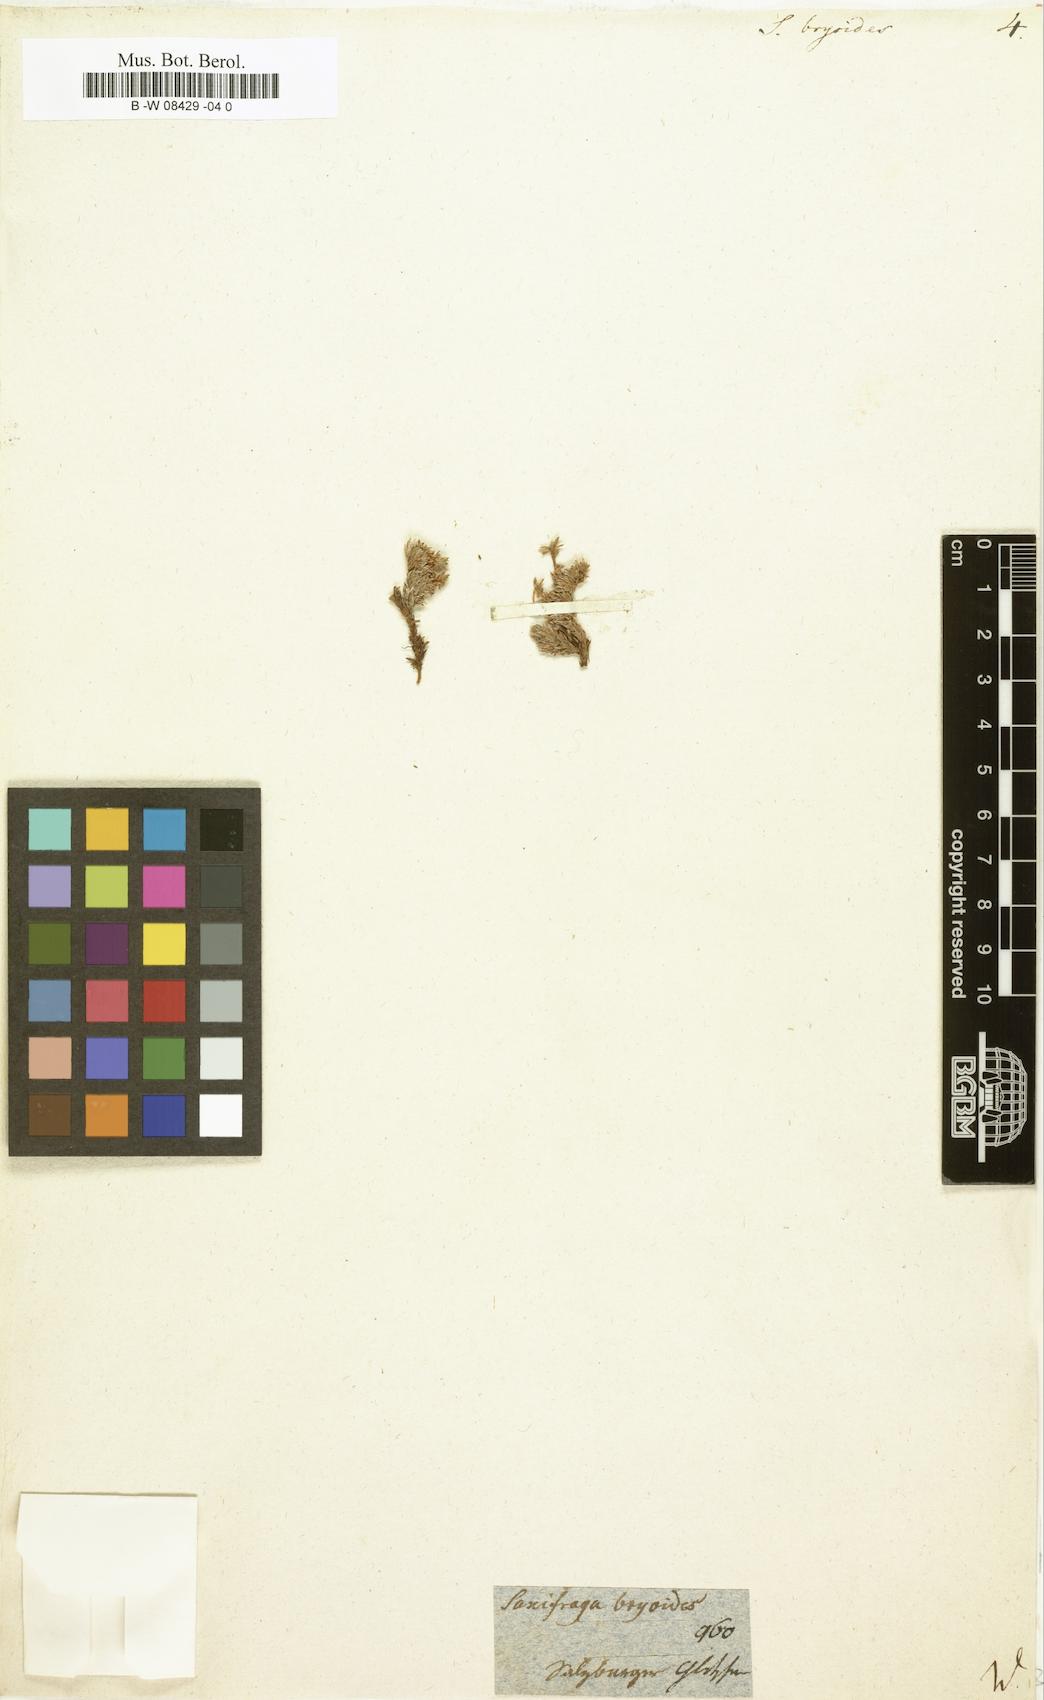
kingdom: Plantae
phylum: Tracheophyta
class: Magnoliopsida
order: Saxifragales
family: Saxifragaceae
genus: Saxifraga
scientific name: Saxifraga bryoides
